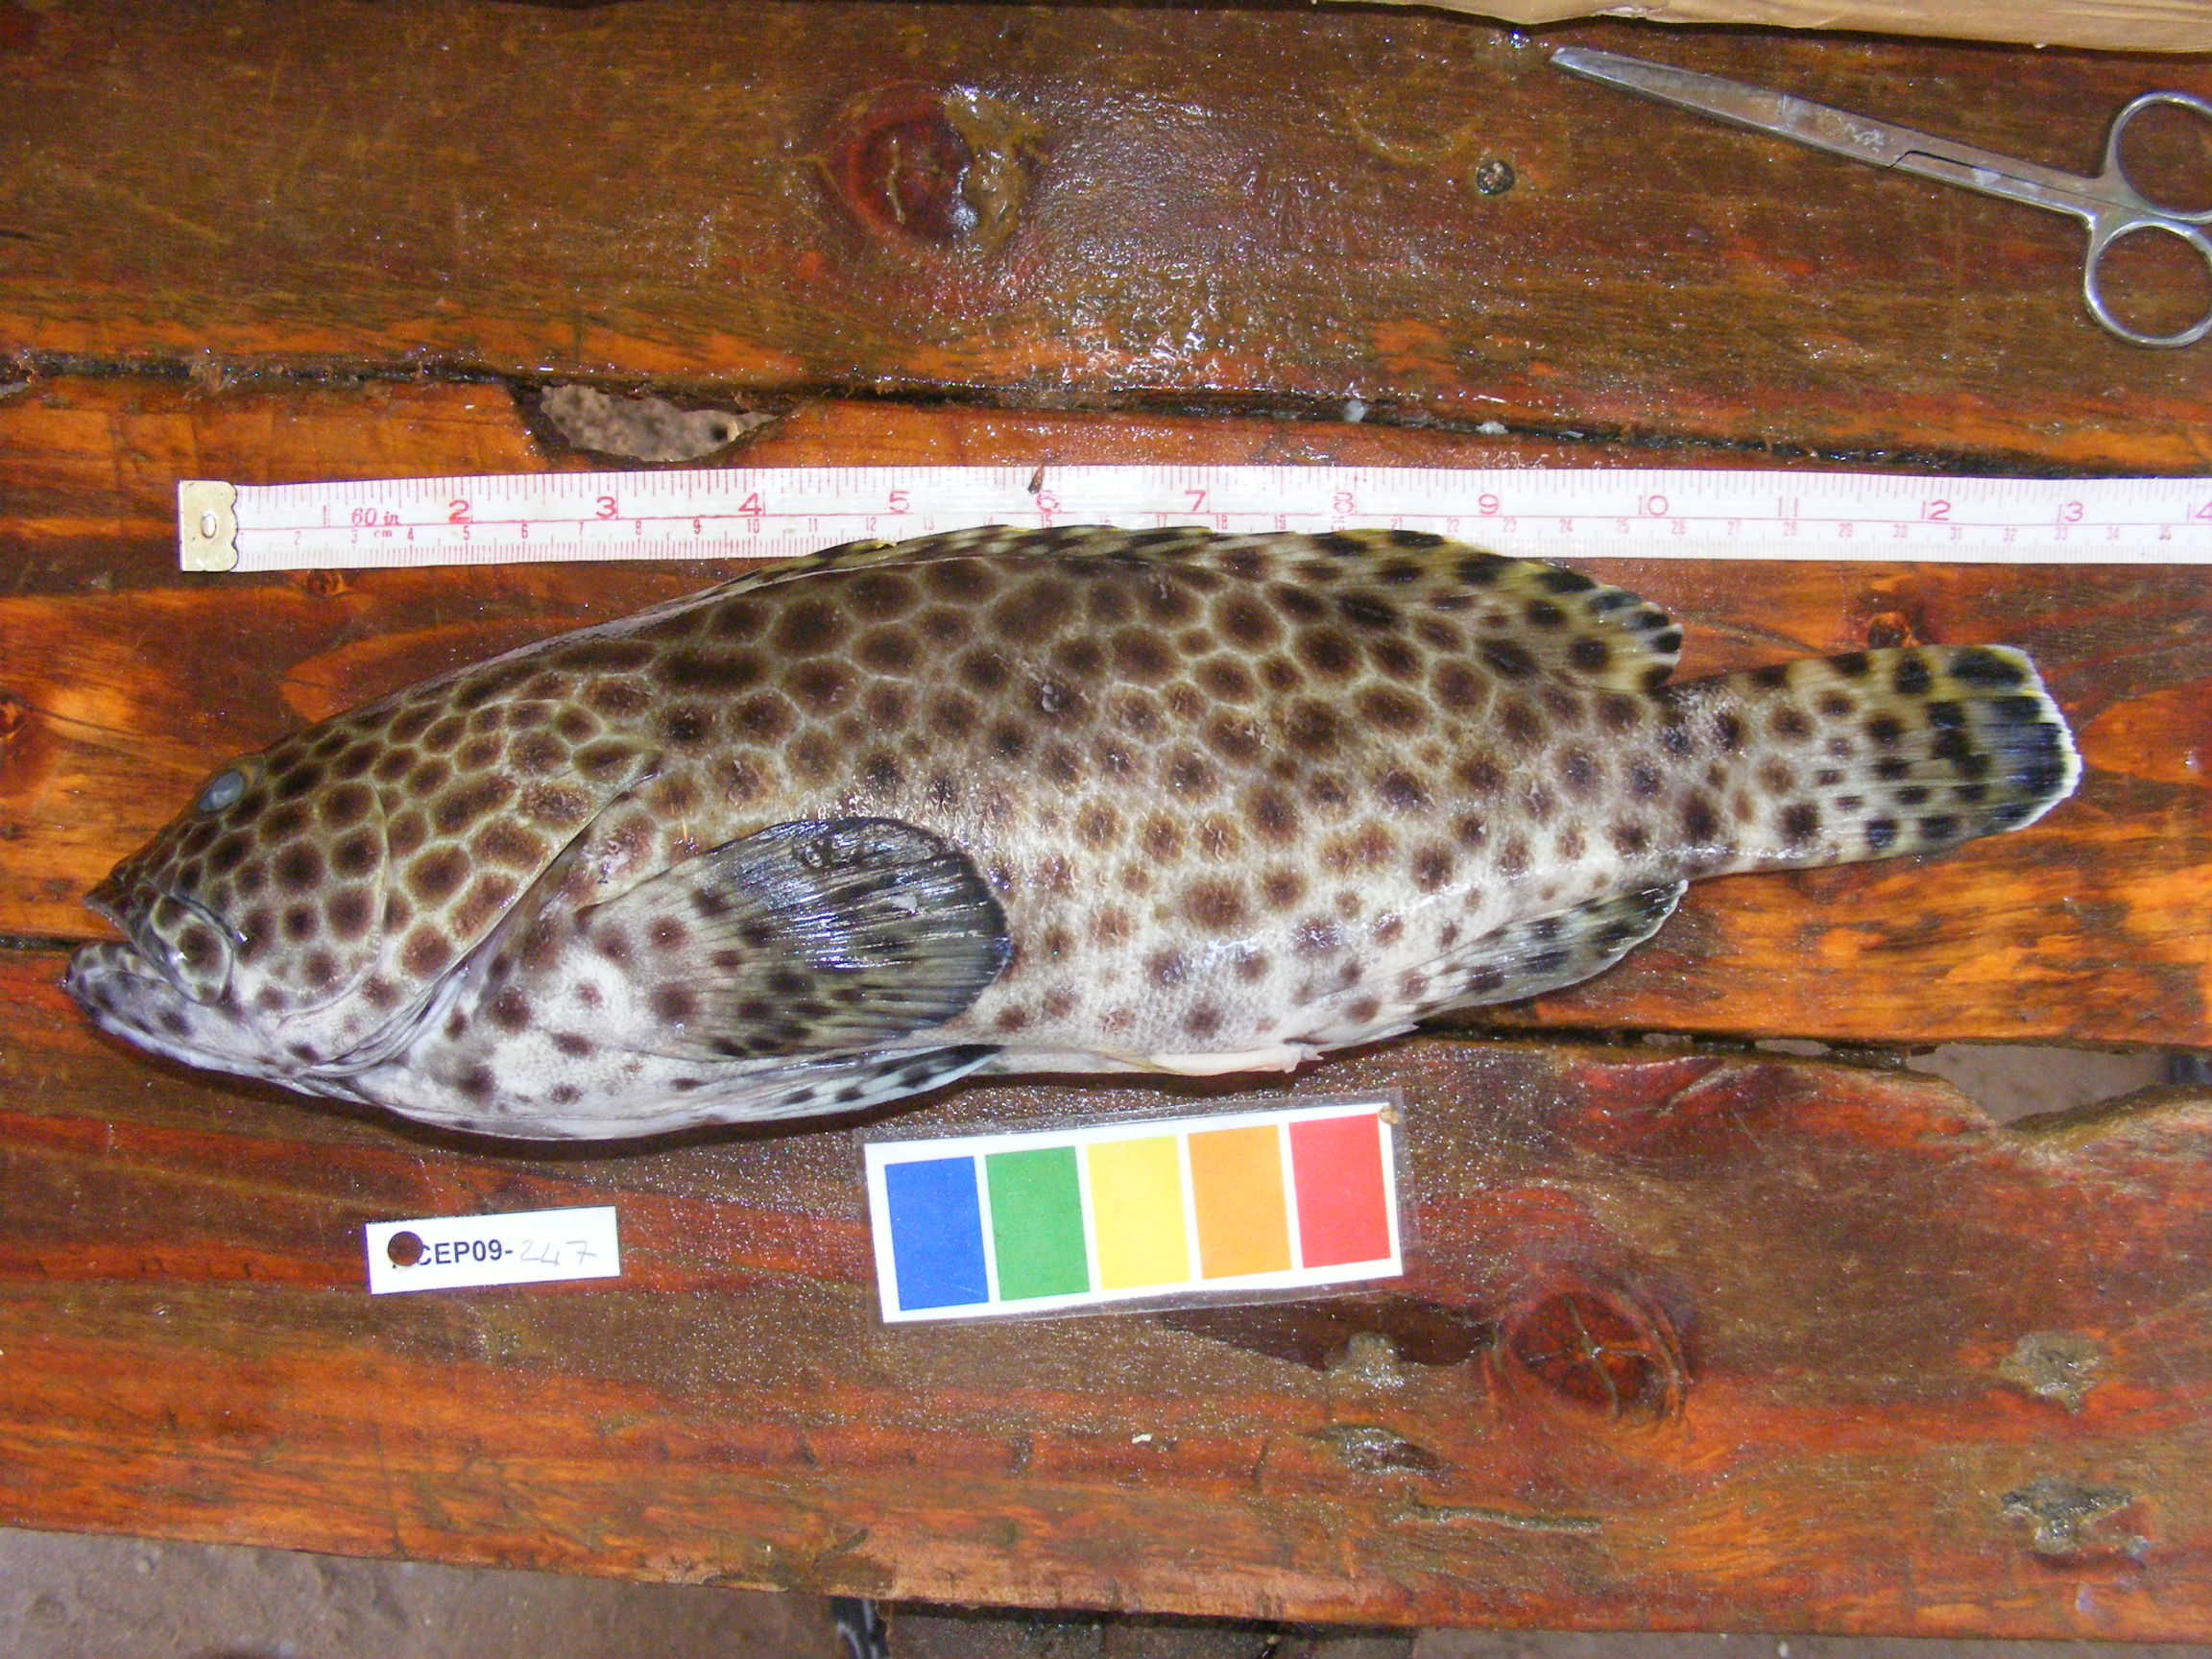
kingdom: Animalia
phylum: Chordata
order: Perciformes
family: Serranidae
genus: Epinephelus
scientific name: Epinephelus melanostigma
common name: Blackspot grouper
